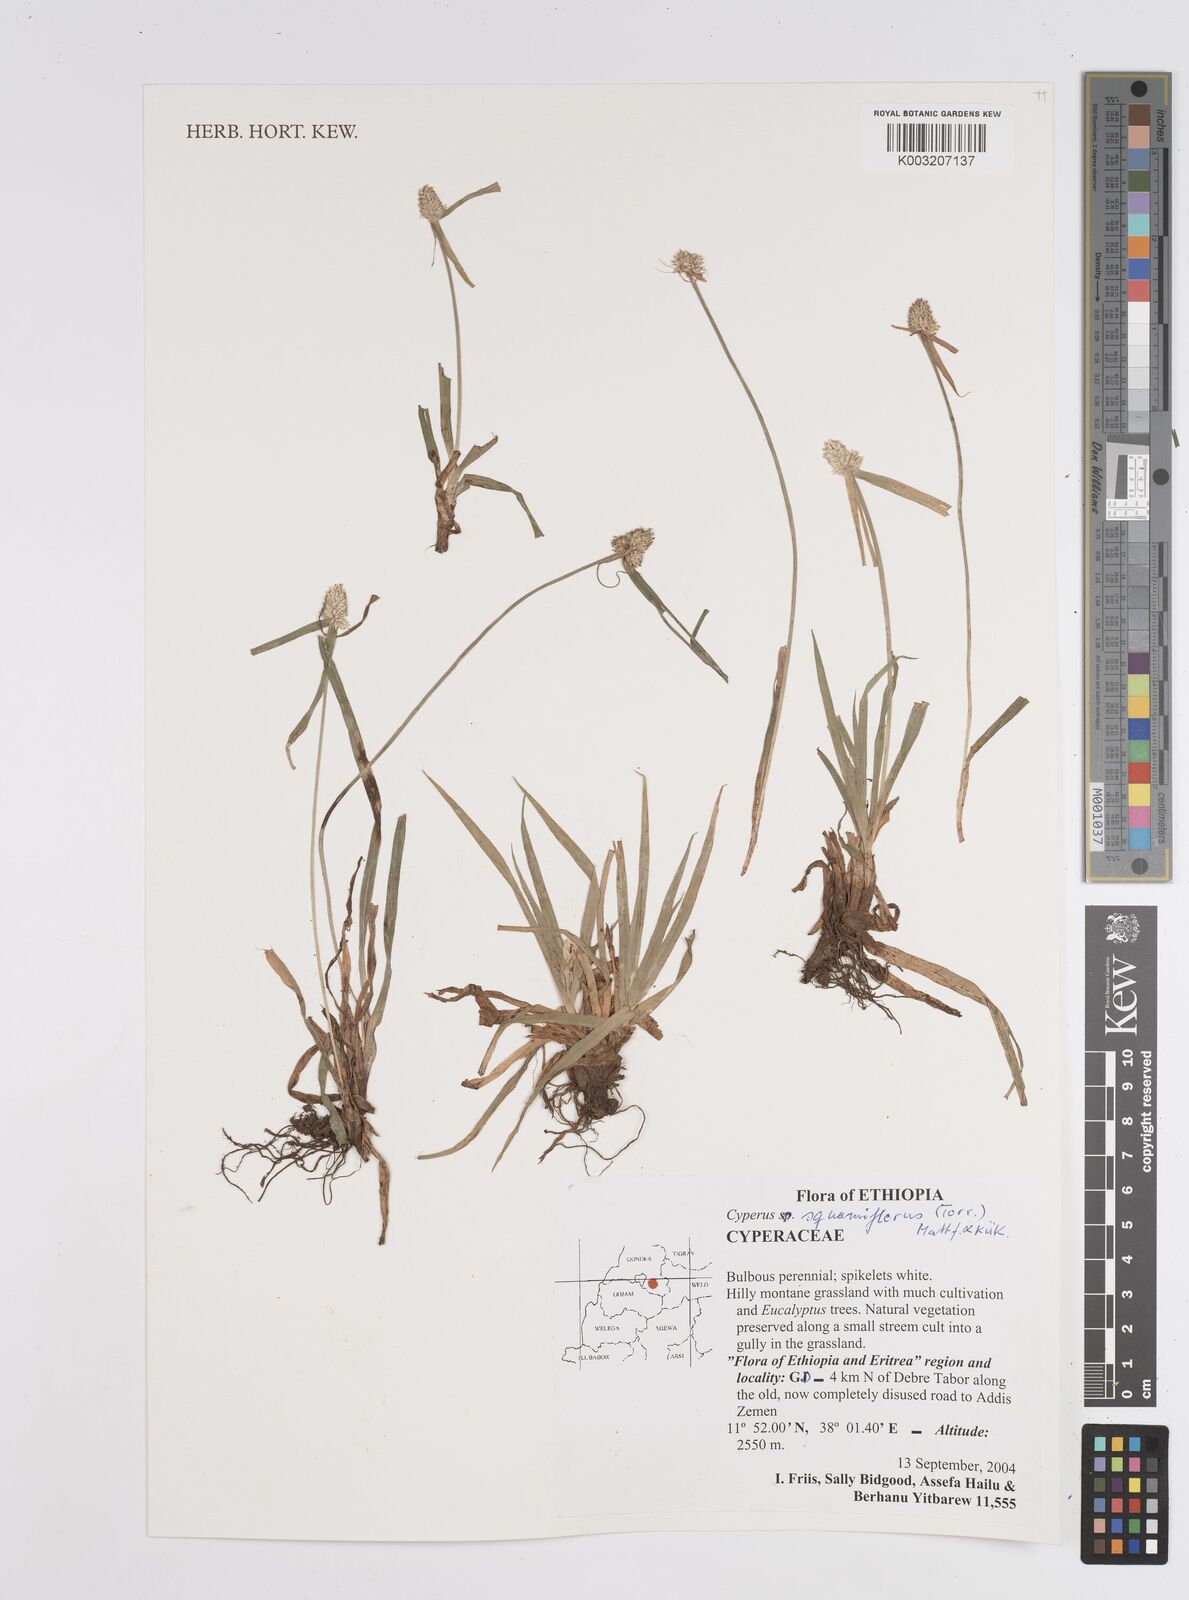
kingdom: Plantae
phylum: Tracheophyta
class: Liliopsida
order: Poales
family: Cyperaceae
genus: Cyperus
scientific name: Cyperus odoratus
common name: Fragrant flatsedge
